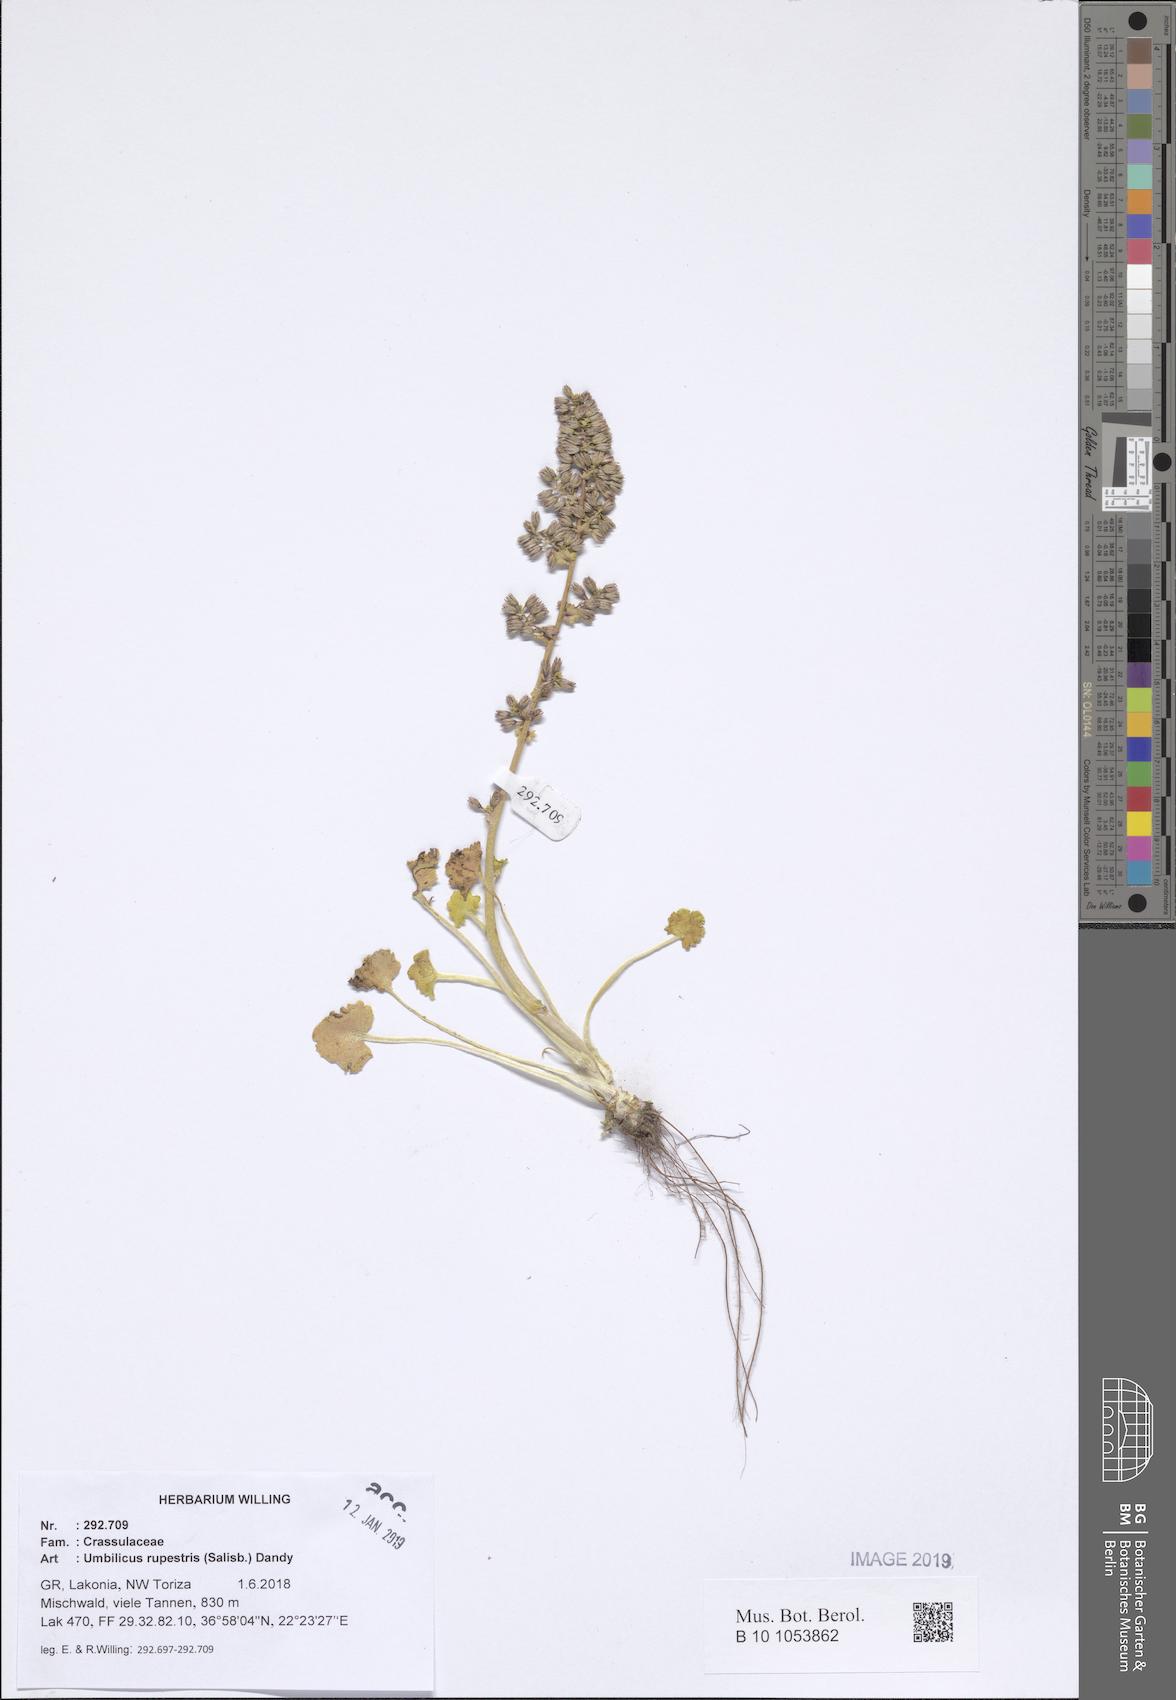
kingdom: Plantae
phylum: Tracheophyta
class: Magnoliopsida
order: Saxifragales
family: Crassulaceae
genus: Umbilicus
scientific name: Umbilicus rupestris
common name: Navelwort
